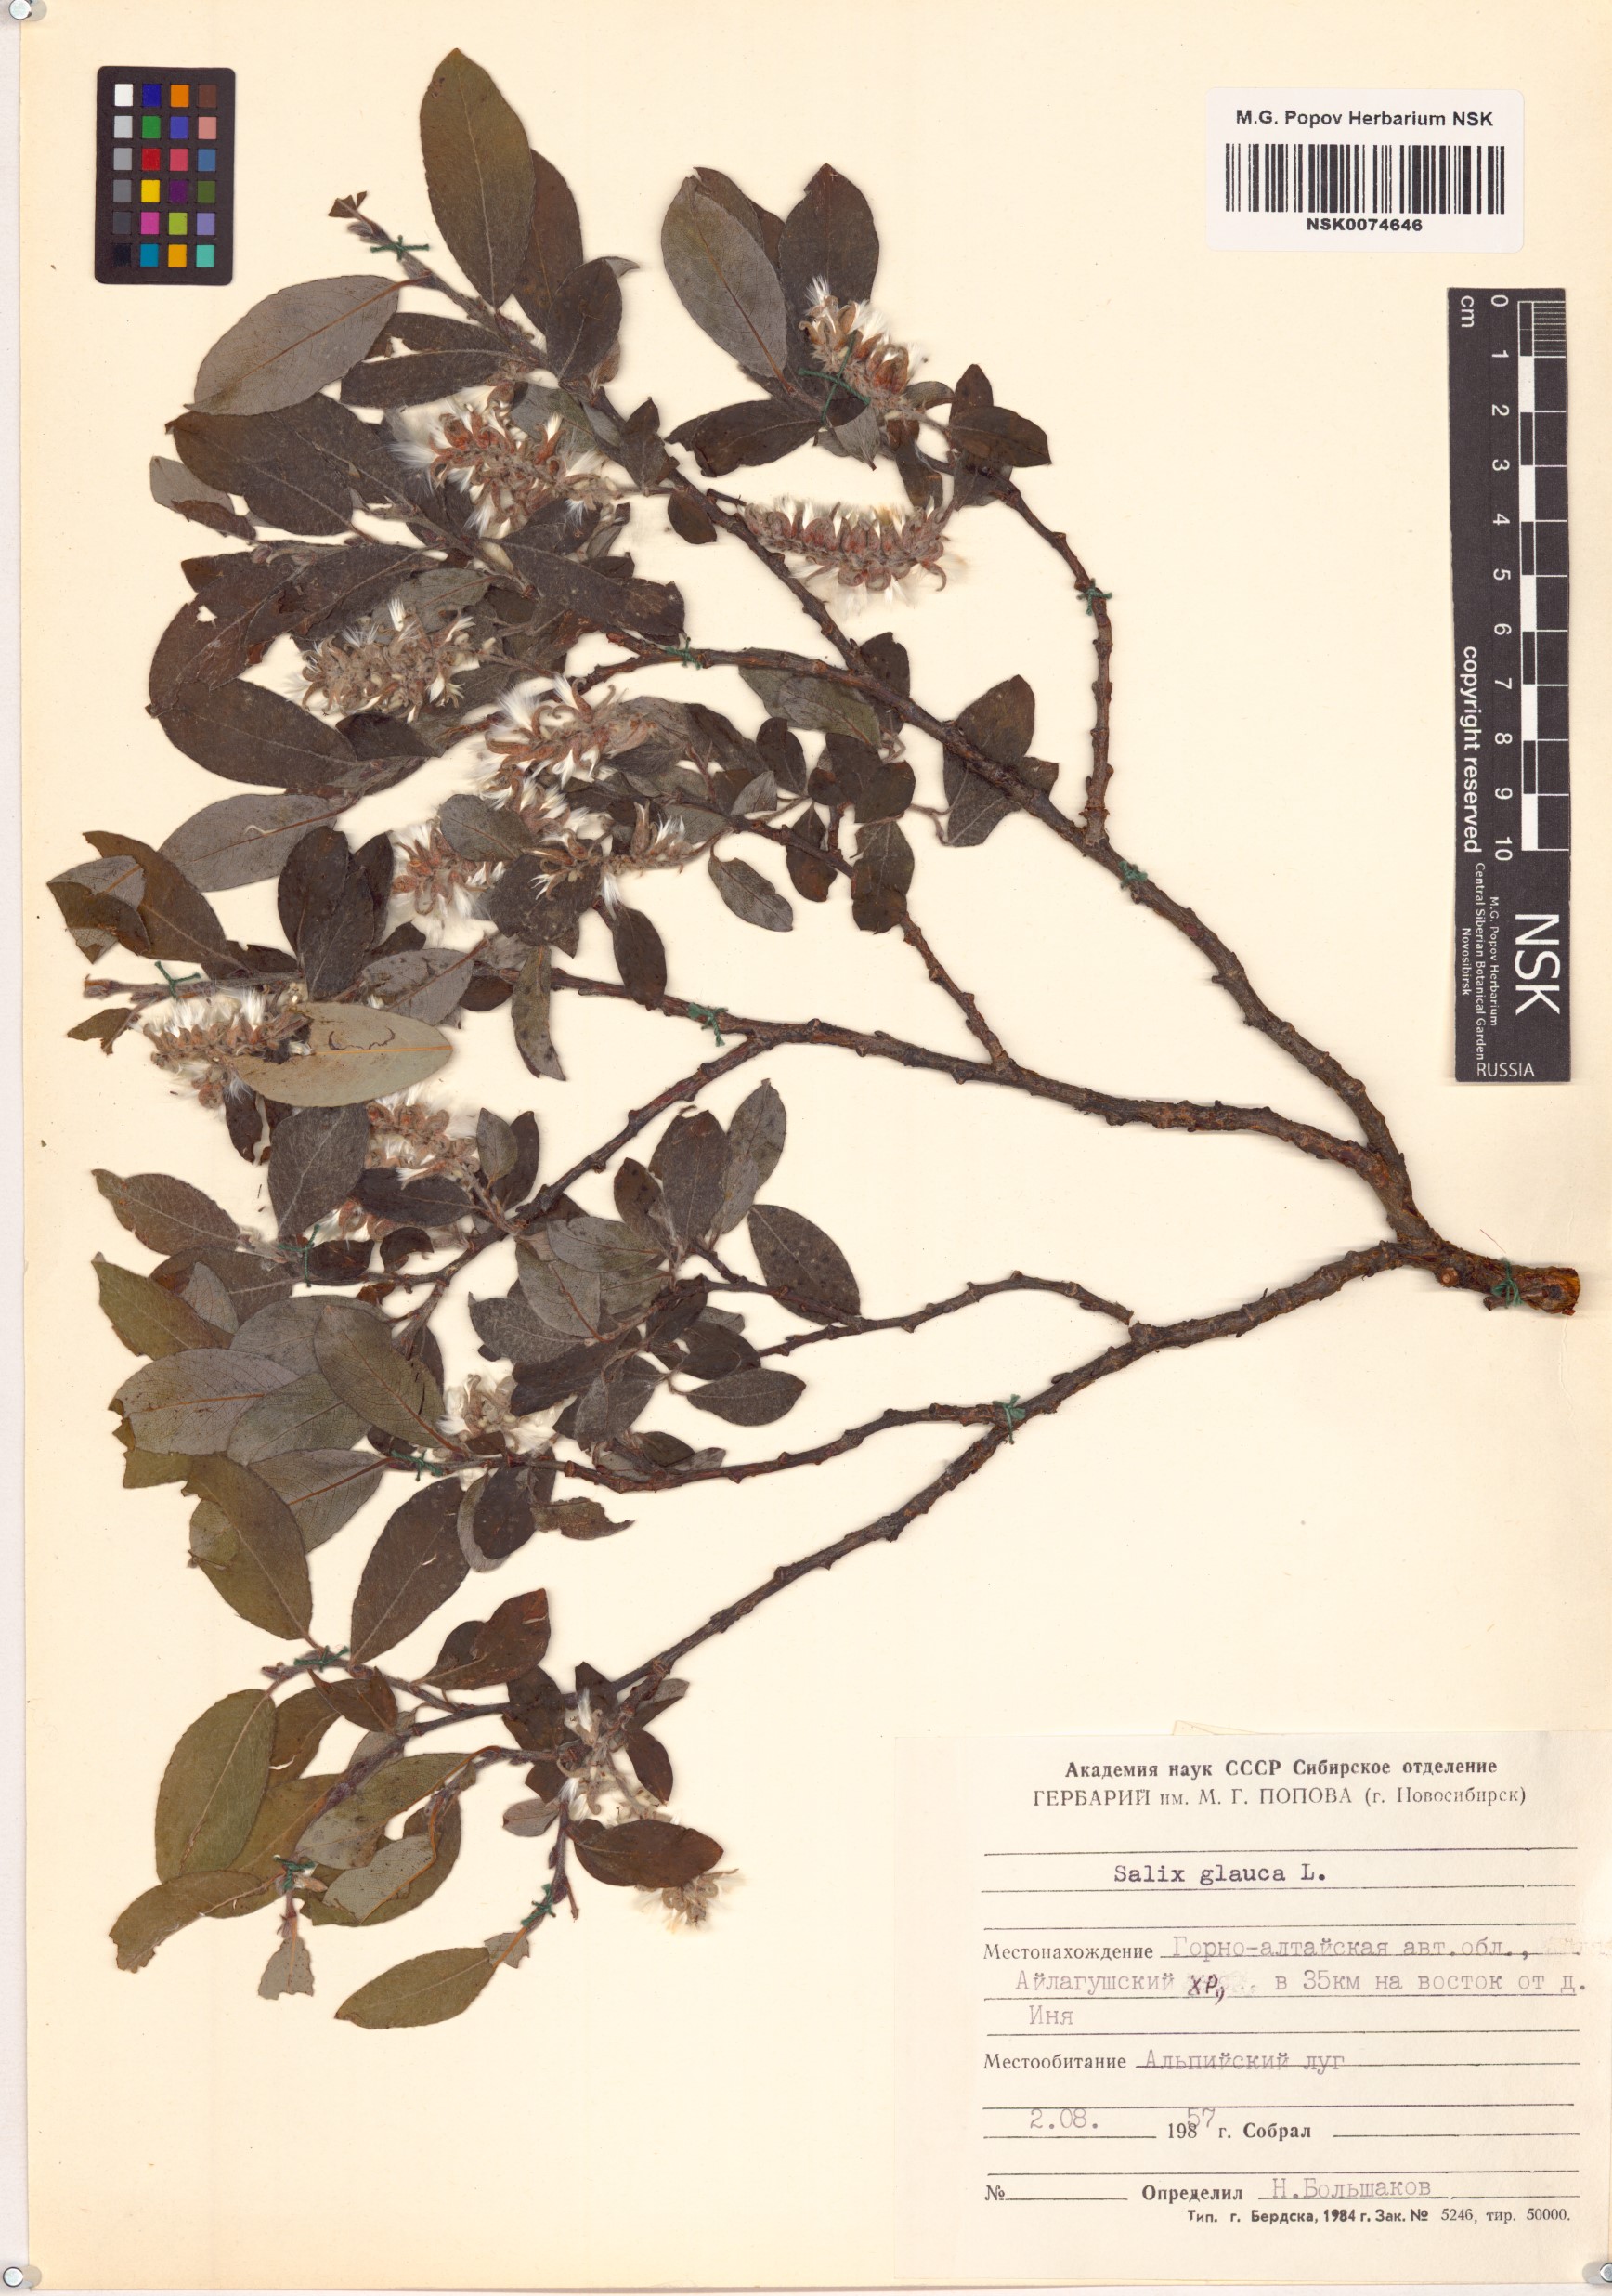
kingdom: Plantae
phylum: Tracheophyta
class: Magnoliopsida
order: Malpighiales
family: Salicaceae
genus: Salix
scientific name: Salix glauca
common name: Glaucous willow
